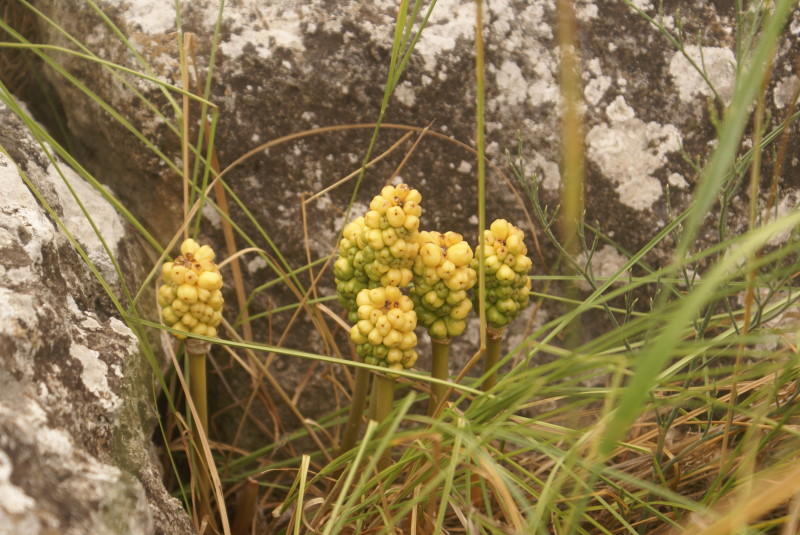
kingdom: Plantae
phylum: Tracheophyta
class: Liliopsida
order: Alismatales
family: Araceae
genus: Arum
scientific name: Arum
